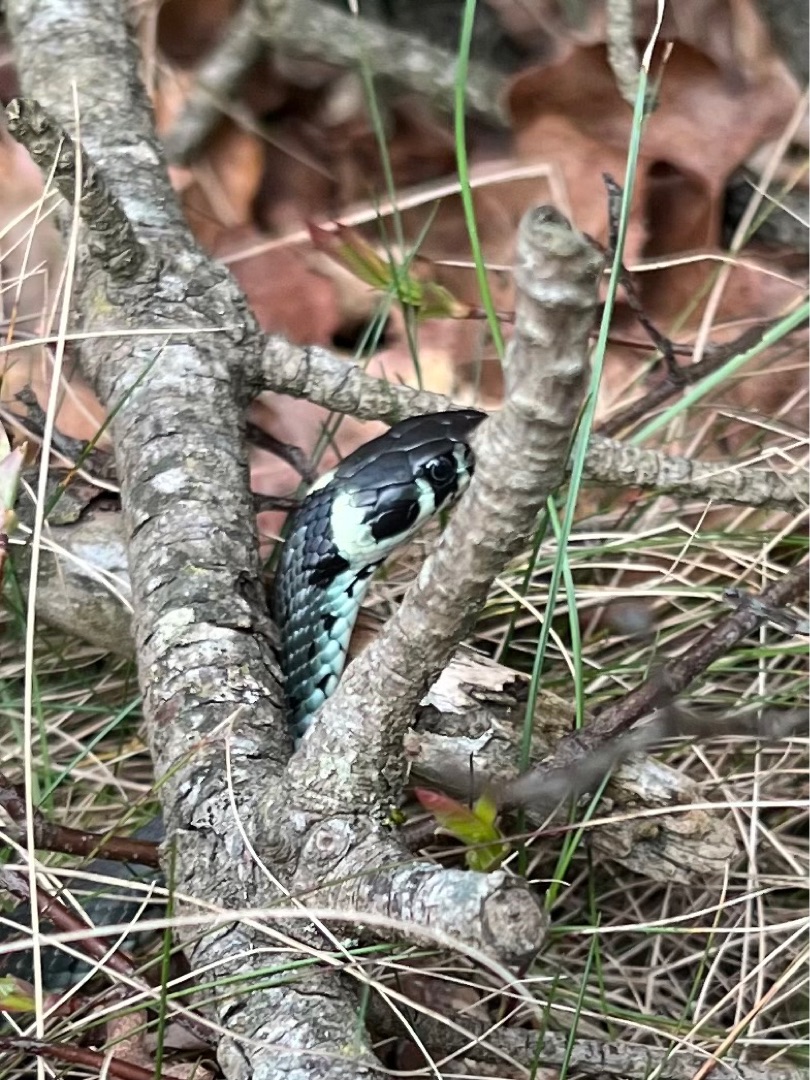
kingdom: Animalia
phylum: Chordata
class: Squamata
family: Colubridae
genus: Natrix
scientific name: Natrix natrix
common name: Snog
